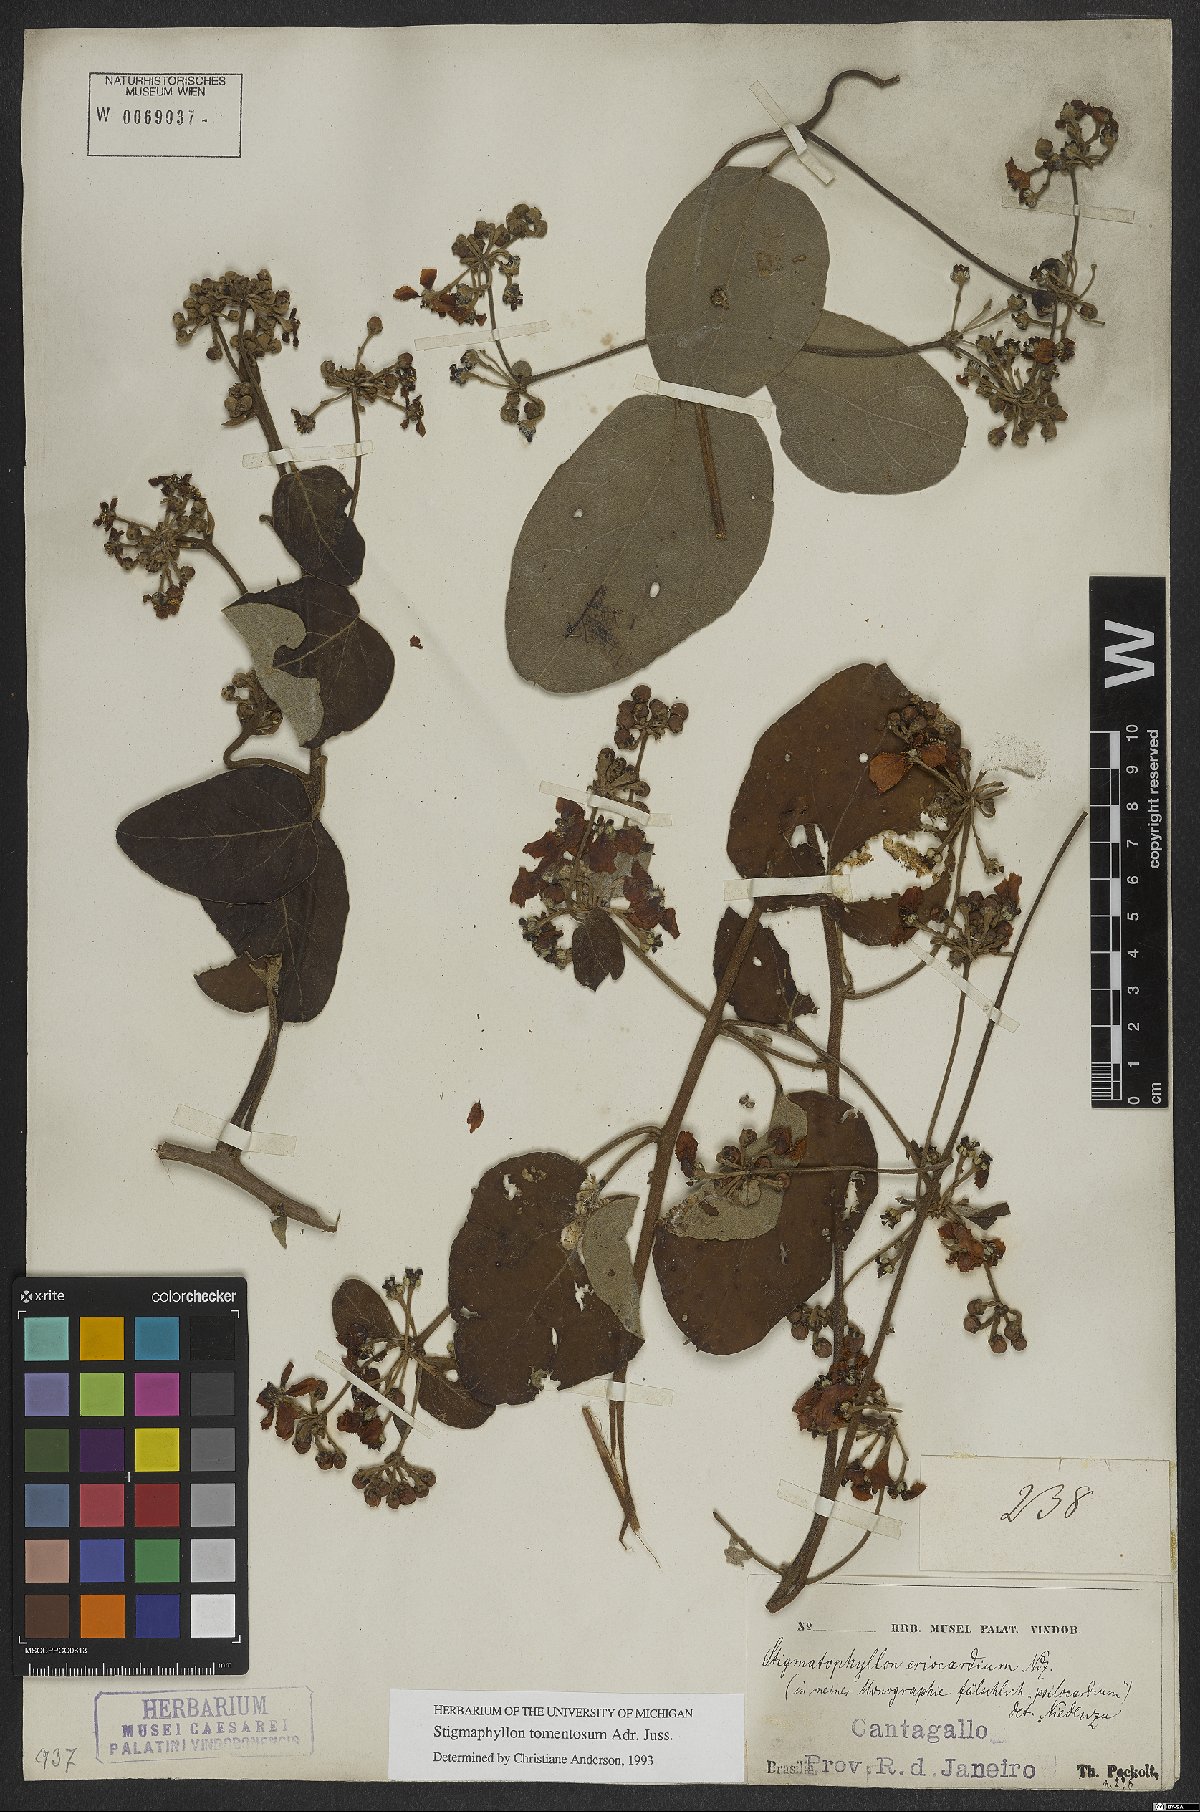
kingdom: Plantae
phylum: Tracheophyta
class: Magnoliopsida
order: Malpighiales
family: Malpighiaceae
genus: Stigmaphyllon
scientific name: Stigmaphyllon tomentosum
